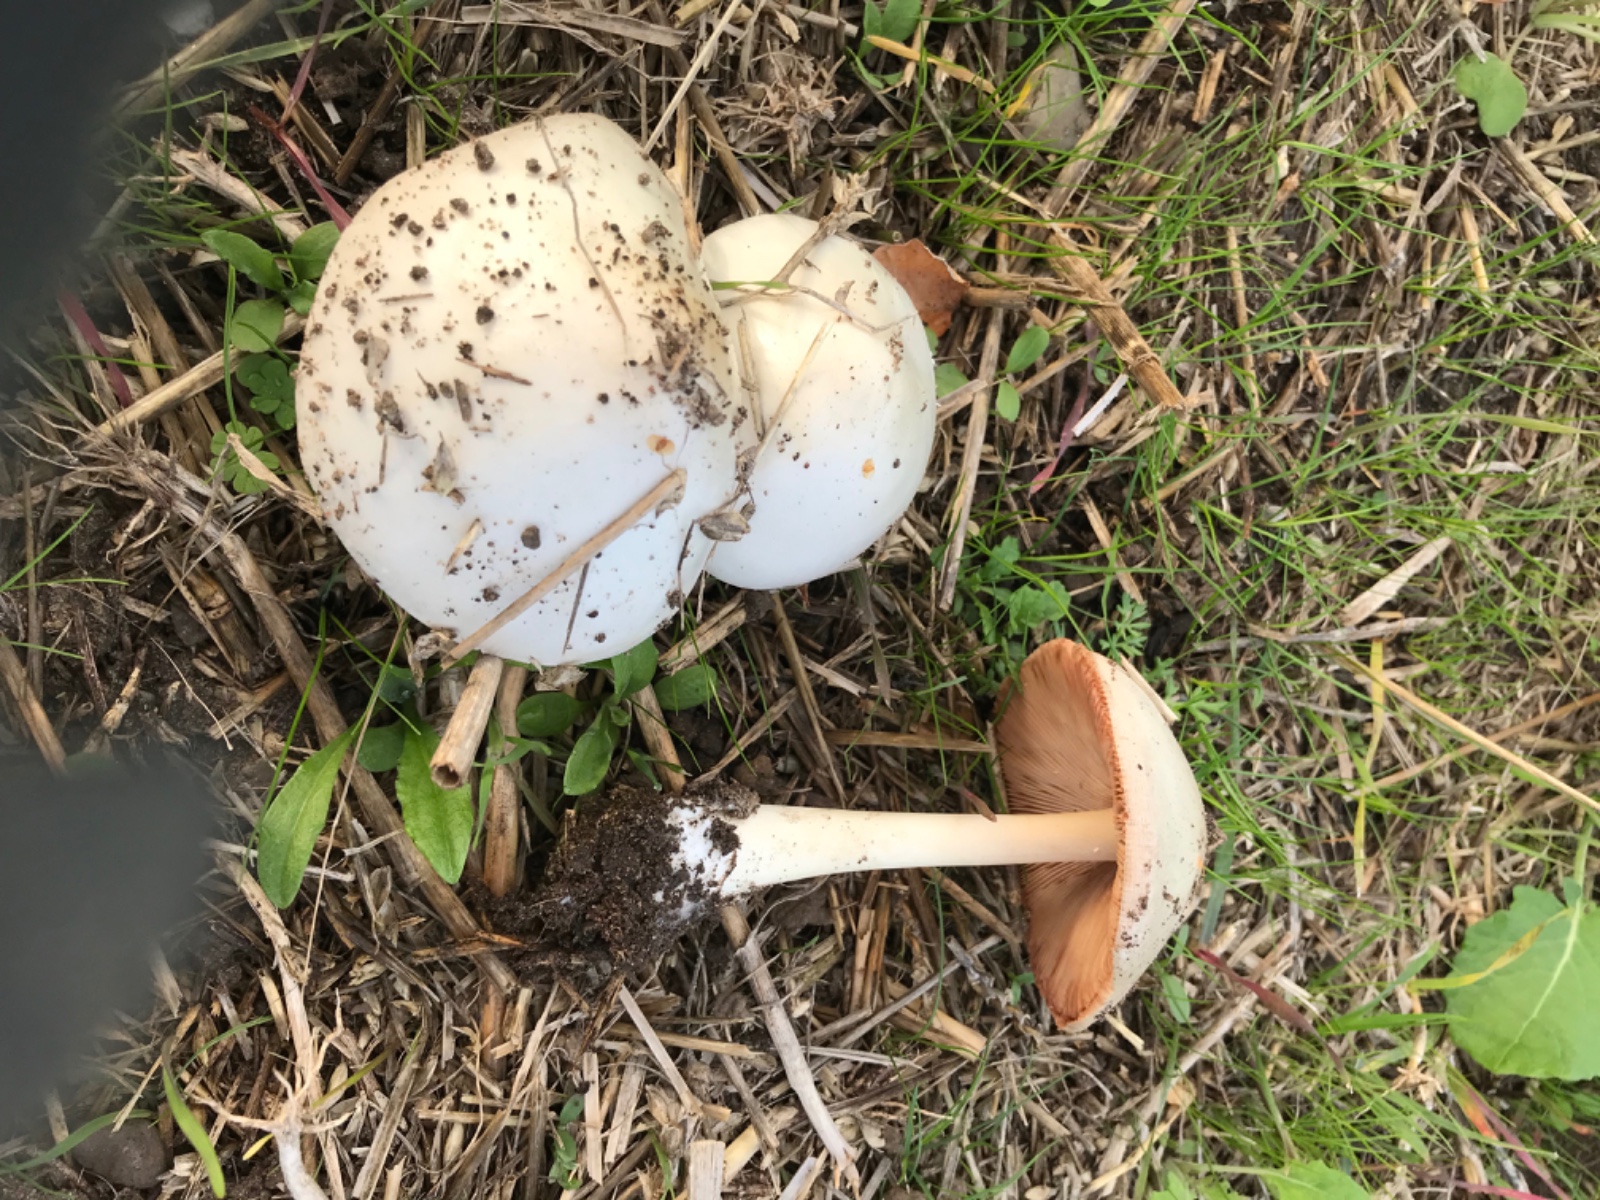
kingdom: Fungi
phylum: Basidiomycota
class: Agaricomycetes
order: Agaricales
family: Pluteaceae
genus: Volvopluteus
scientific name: Volvopluteus gloiocephalus
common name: høj posesvamp
